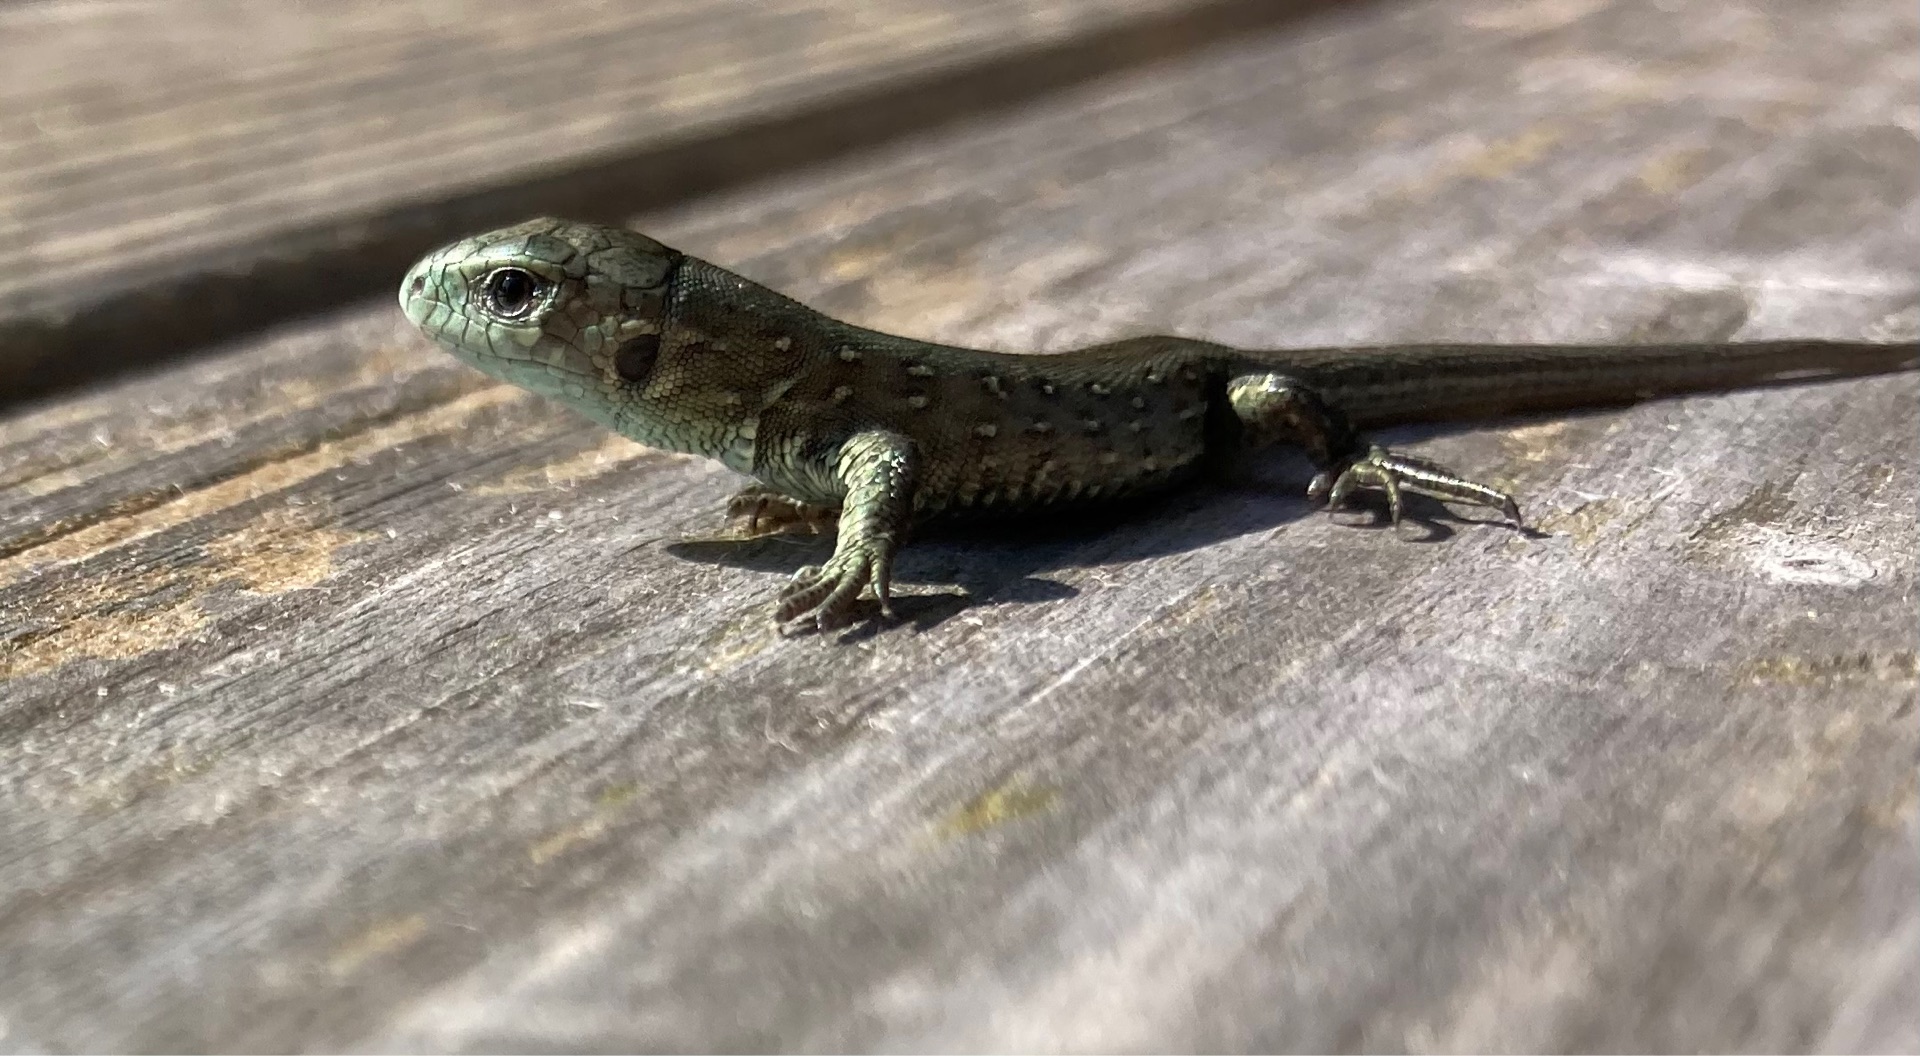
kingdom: Animalia
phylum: Chordata
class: Squamata
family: Lacertidae
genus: Lacerta
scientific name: Lacerta agilis
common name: Markfirben
